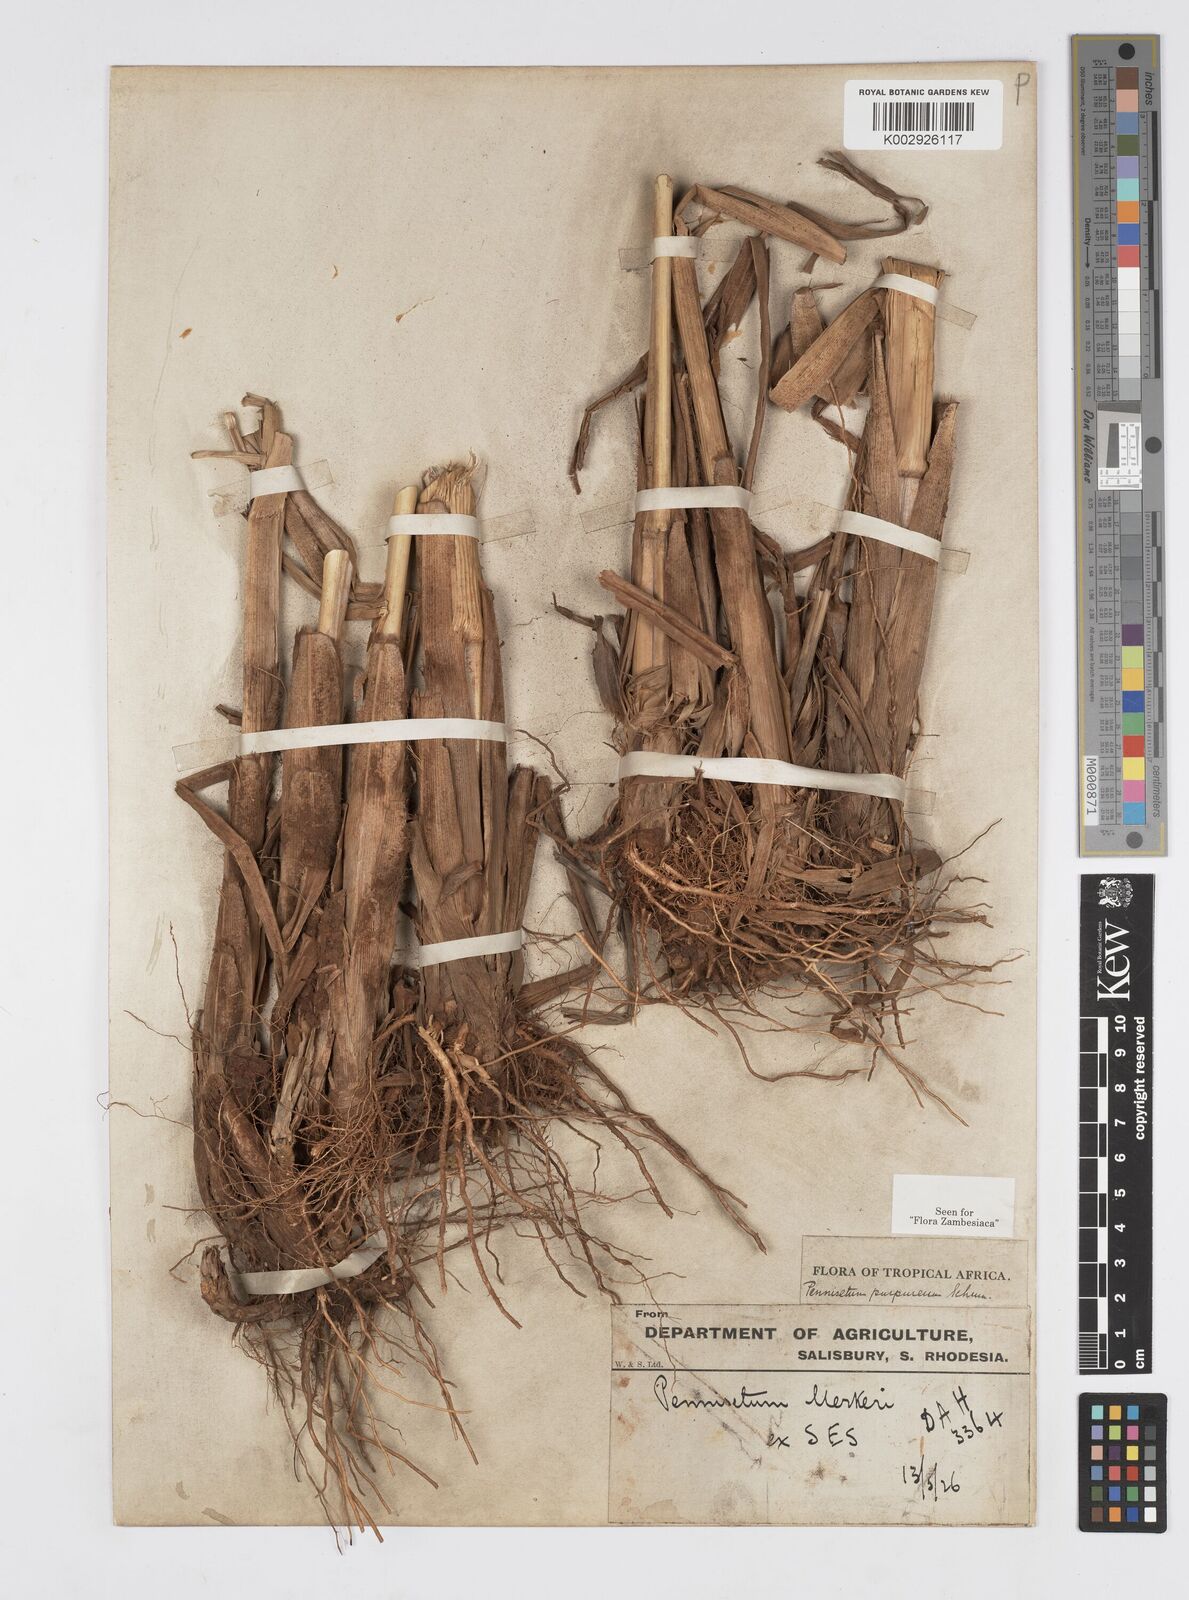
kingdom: Plantae
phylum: Tracheophyta
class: Liliopsida
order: Poales
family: Poaceae
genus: Cenchrus
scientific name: Cenchrus purpureus
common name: Elephant grass
